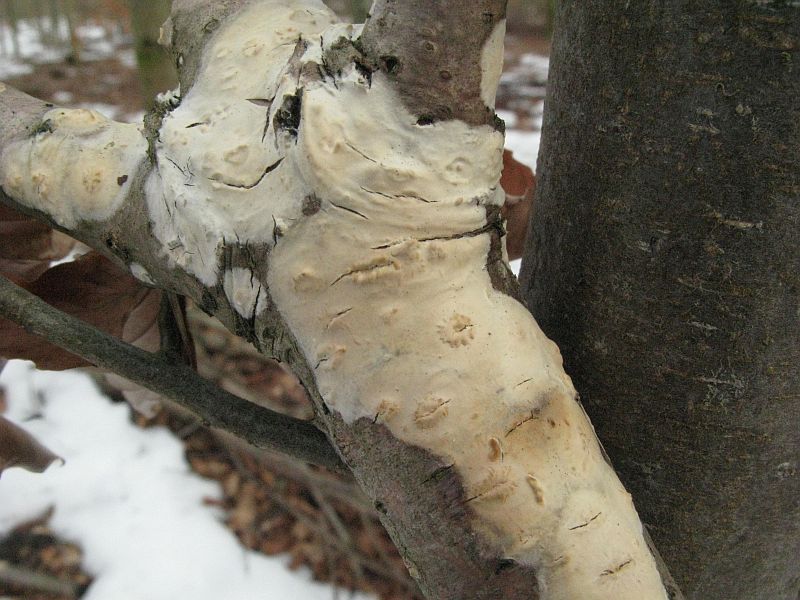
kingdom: Fungi
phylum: Basidiomycota
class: Agaricomycetes
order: Agaricales
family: Radulomycetaceae
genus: Radulomyces
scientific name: Radulomyces confluens
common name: glat naftalinskind
